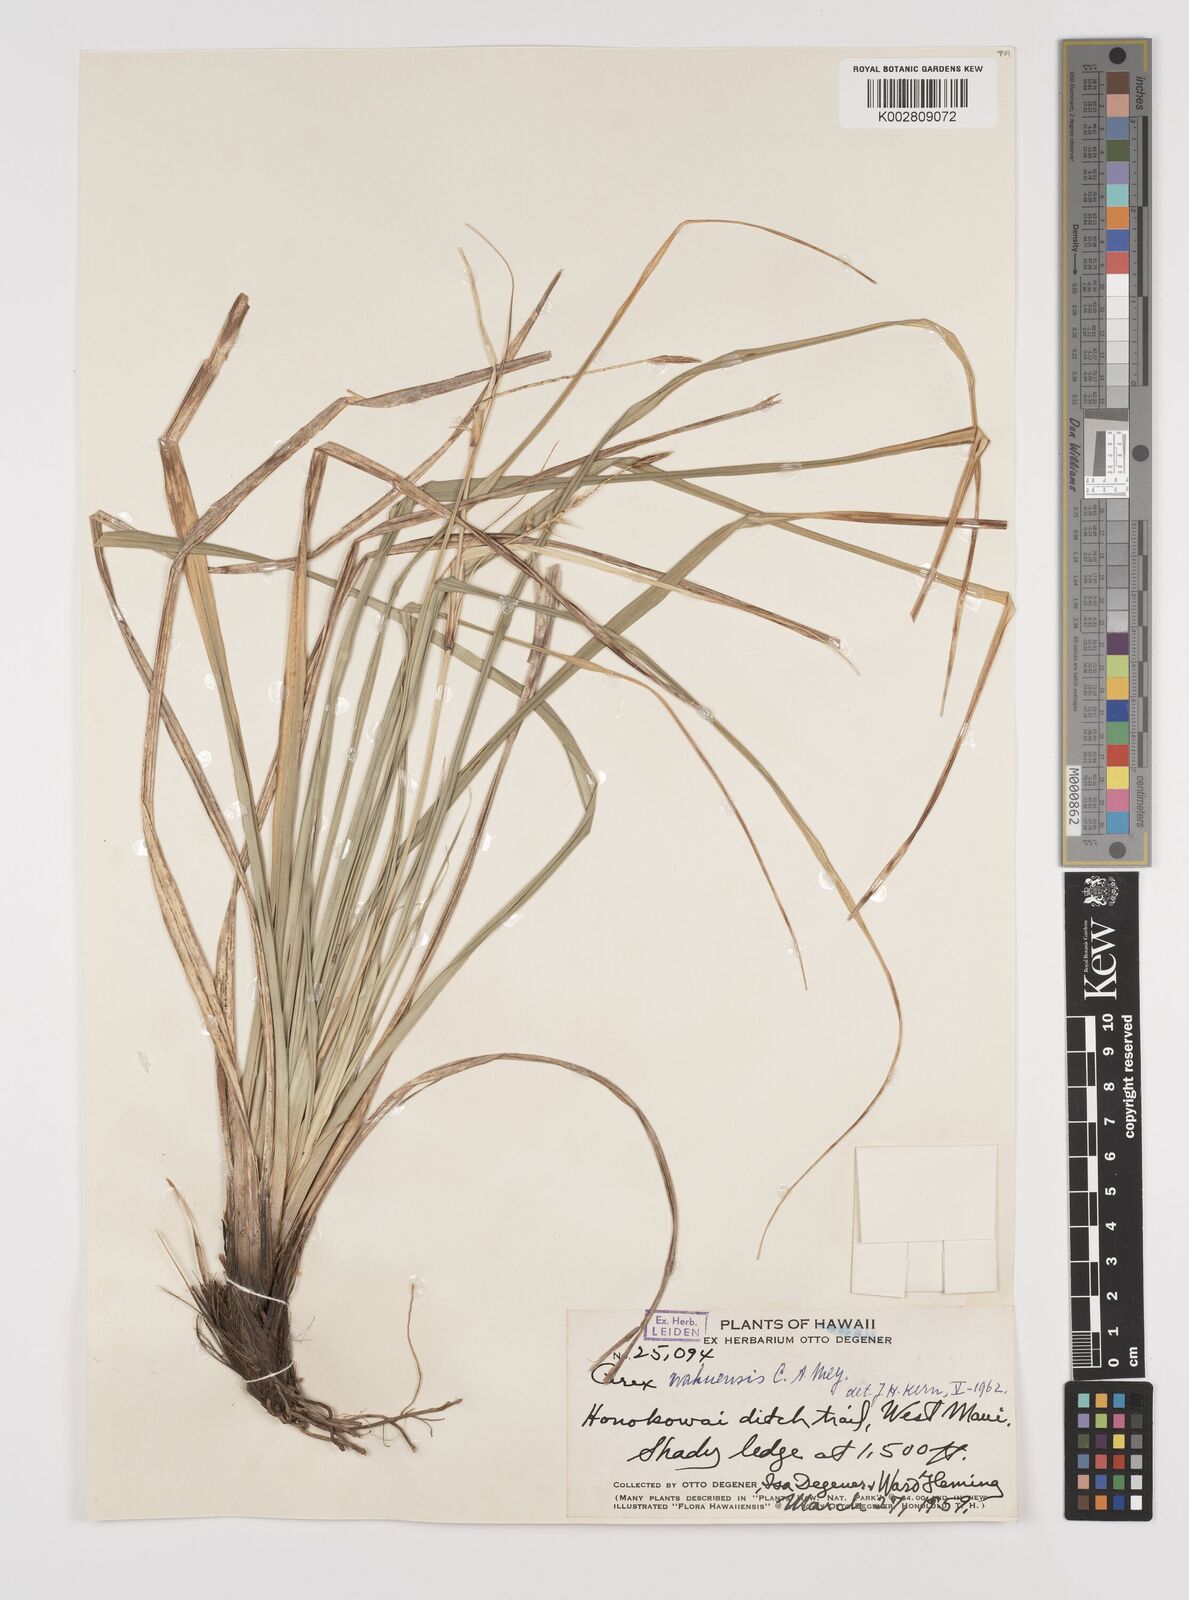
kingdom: Plantae
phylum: Tracheophyta
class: Liliopsida
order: Poales
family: Cyperaceae
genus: Carex
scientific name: Carex wahuensis
